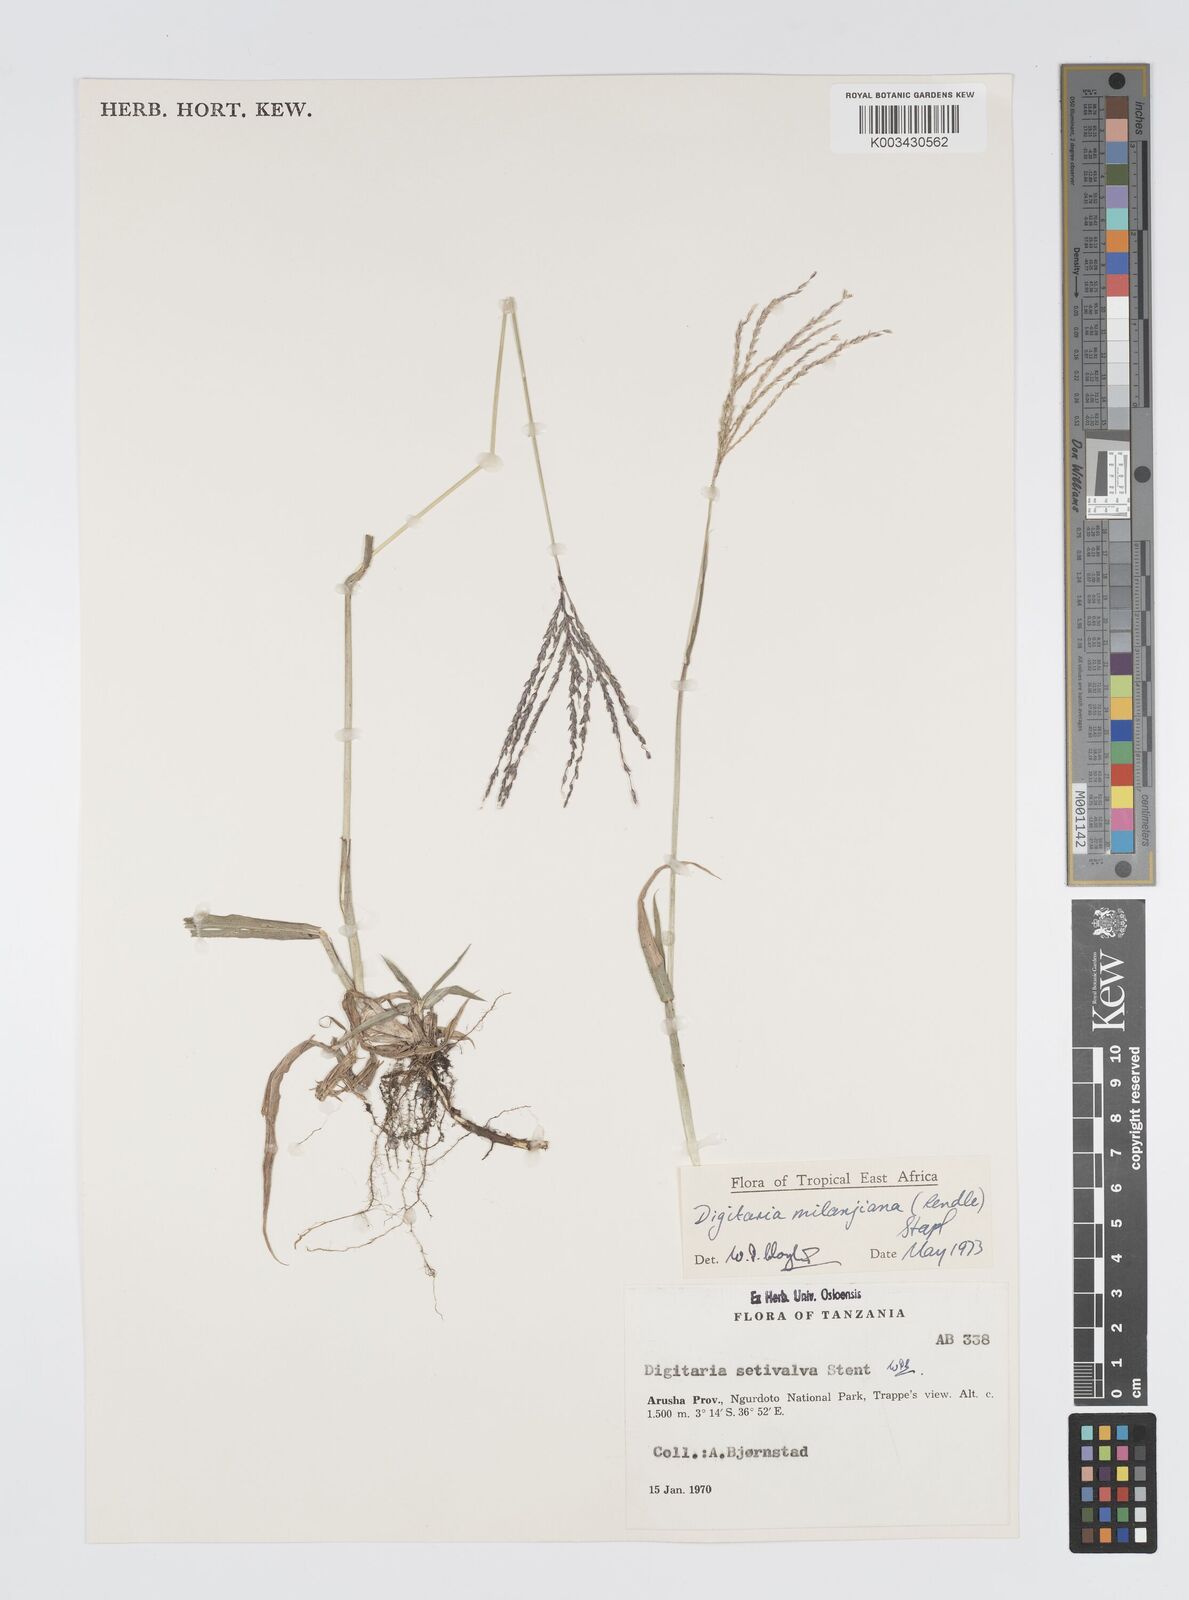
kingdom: Plantae
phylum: Tracheophyta
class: Liliopsida
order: Poales
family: Poaceae
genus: Digitaria
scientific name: Digitaria milanjiana
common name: Madagascar crabgrass
